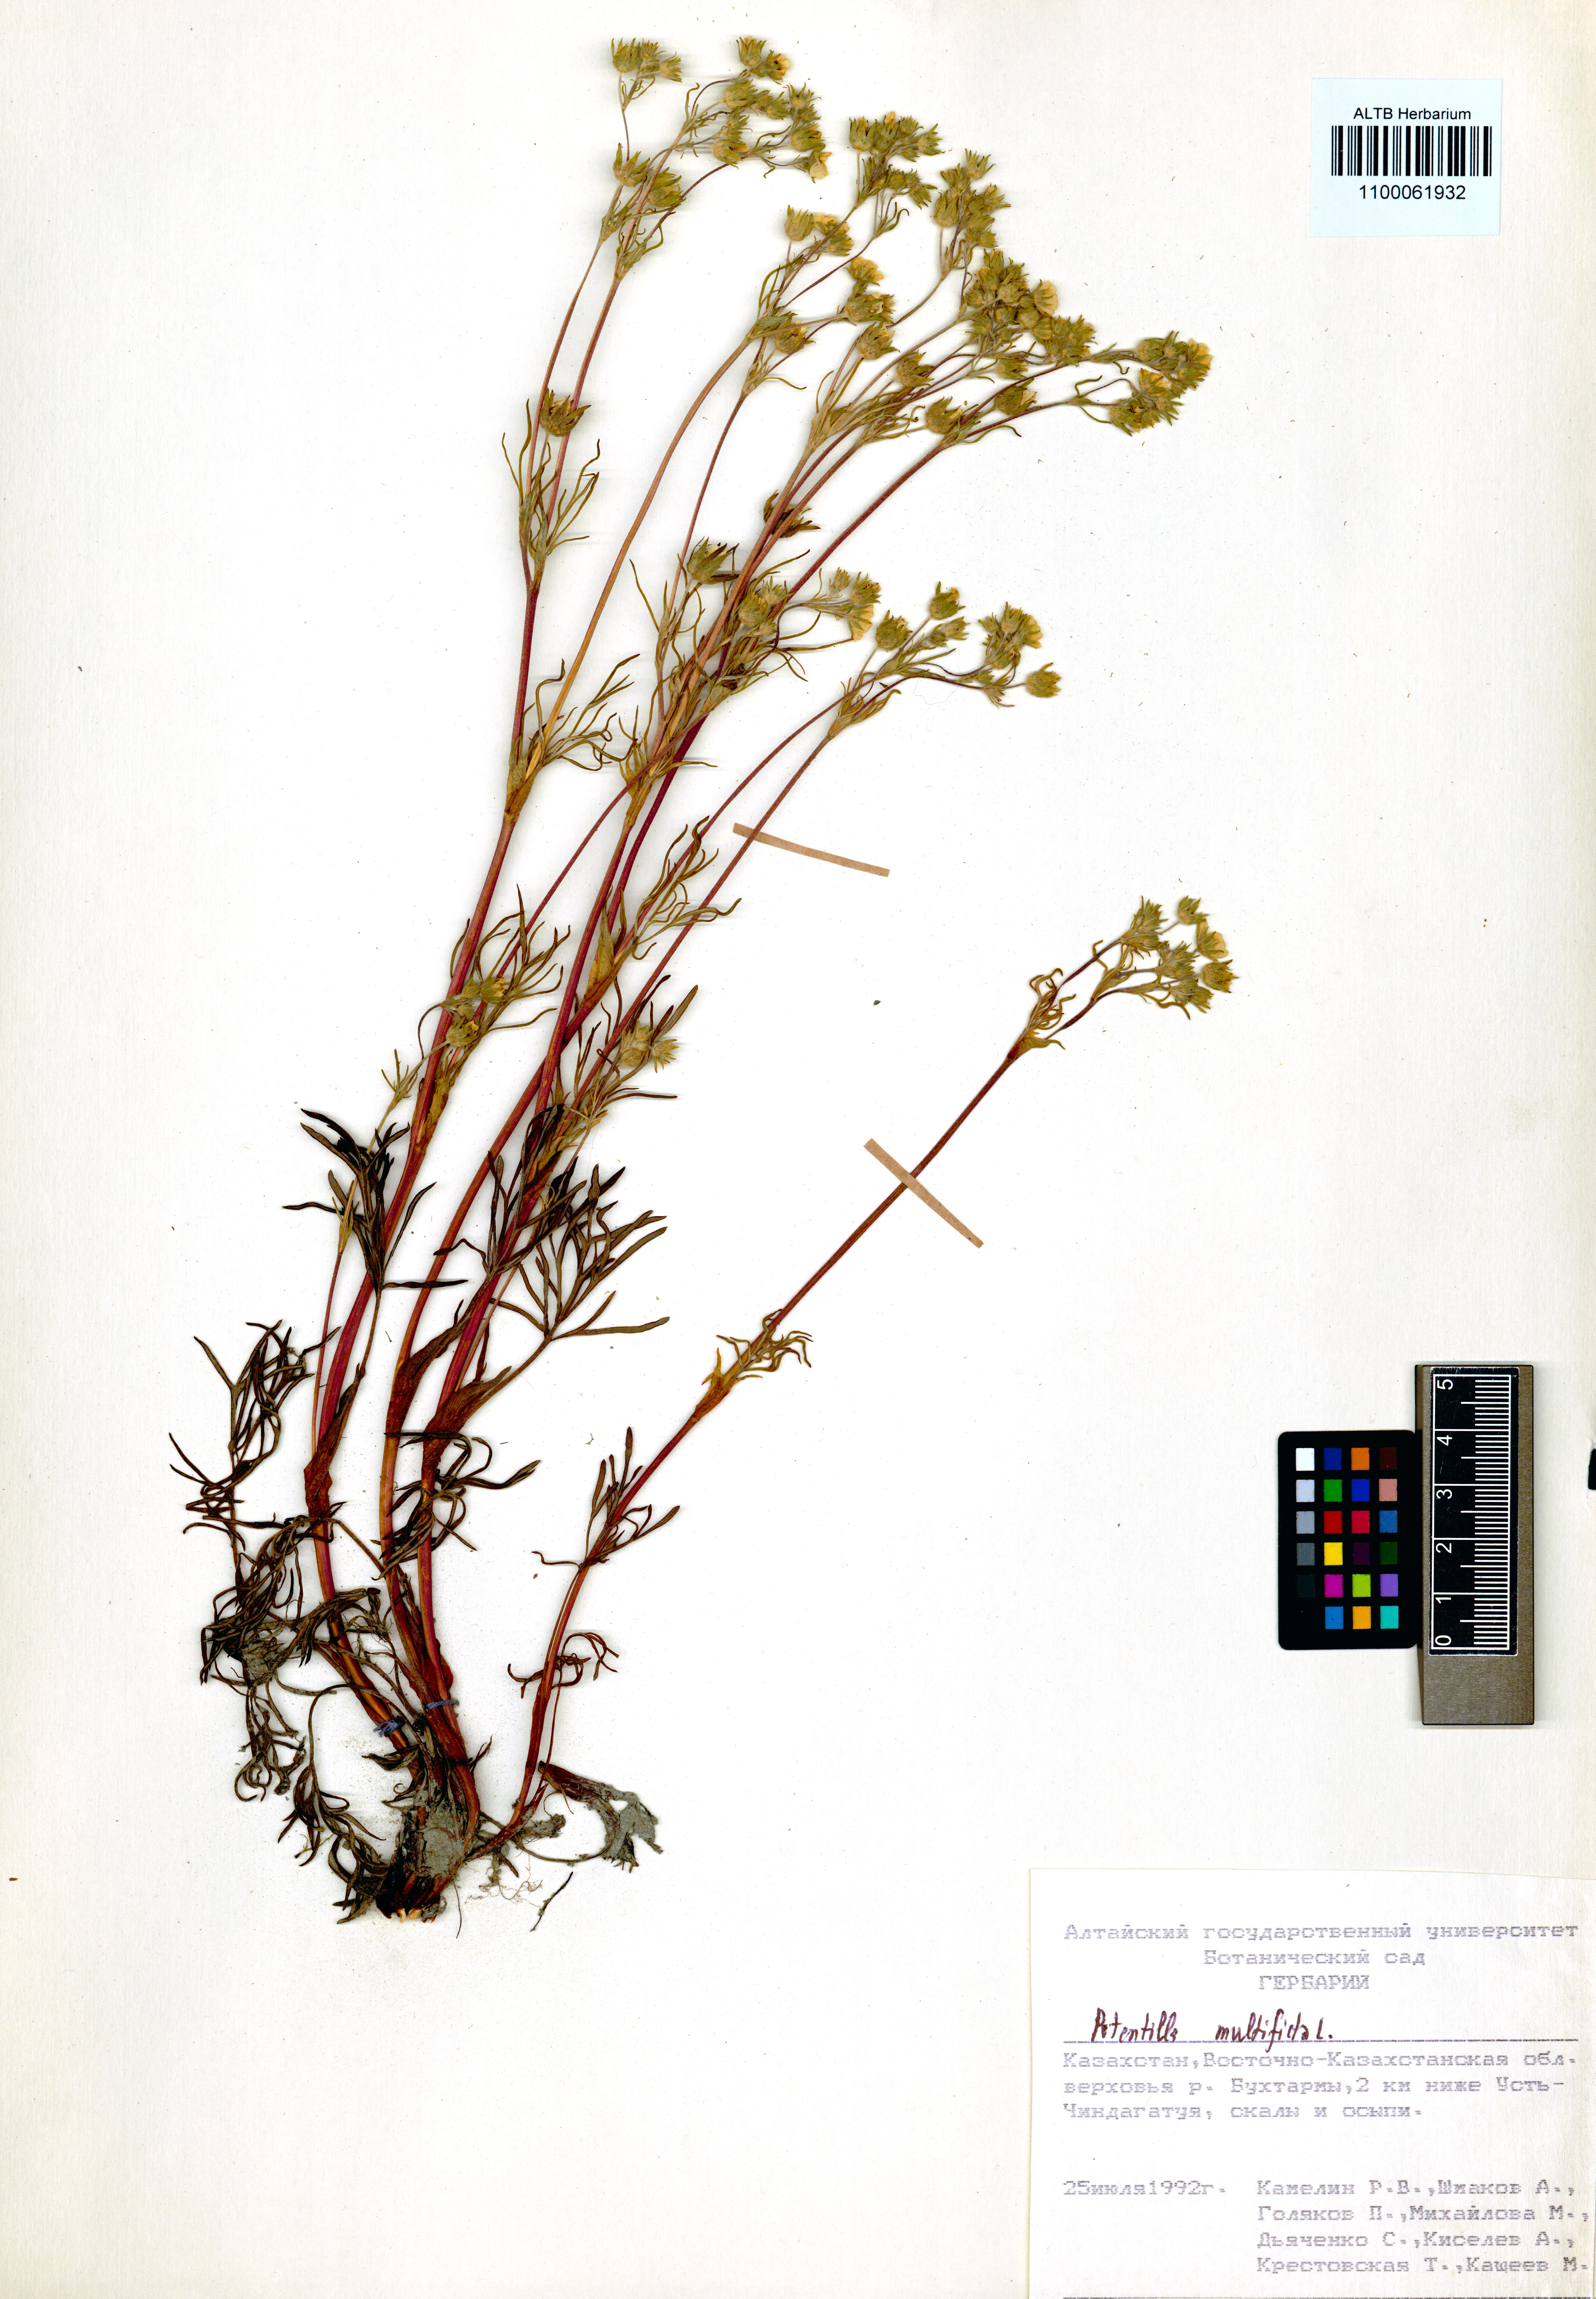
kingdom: Plantae
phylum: Tracheophyta
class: Magnoliopsida
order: Rosales
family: Rosaceae
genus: Potentilla
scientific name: Potentilla multifida
